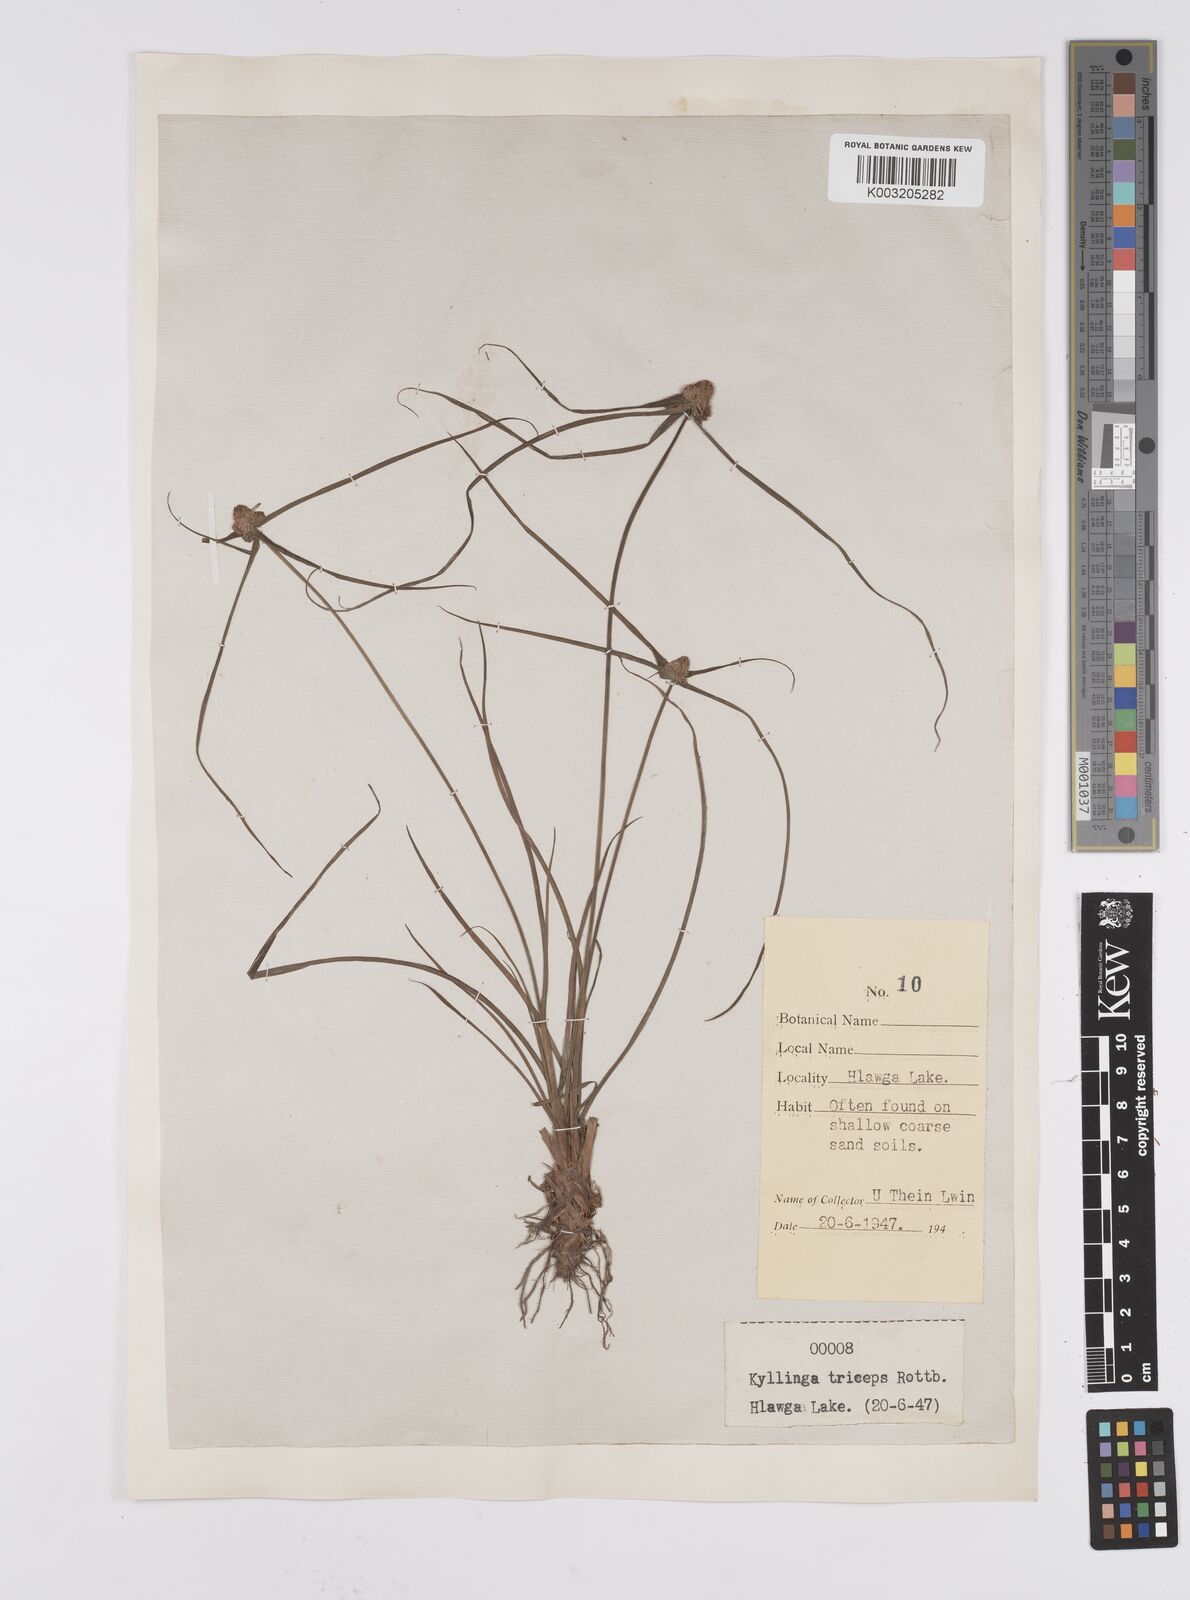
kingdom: Plantae
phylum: Tracheophyta
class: Liliopsida
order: Poales
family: Cyperaceae
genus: Cyperus
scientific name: Cyperus
